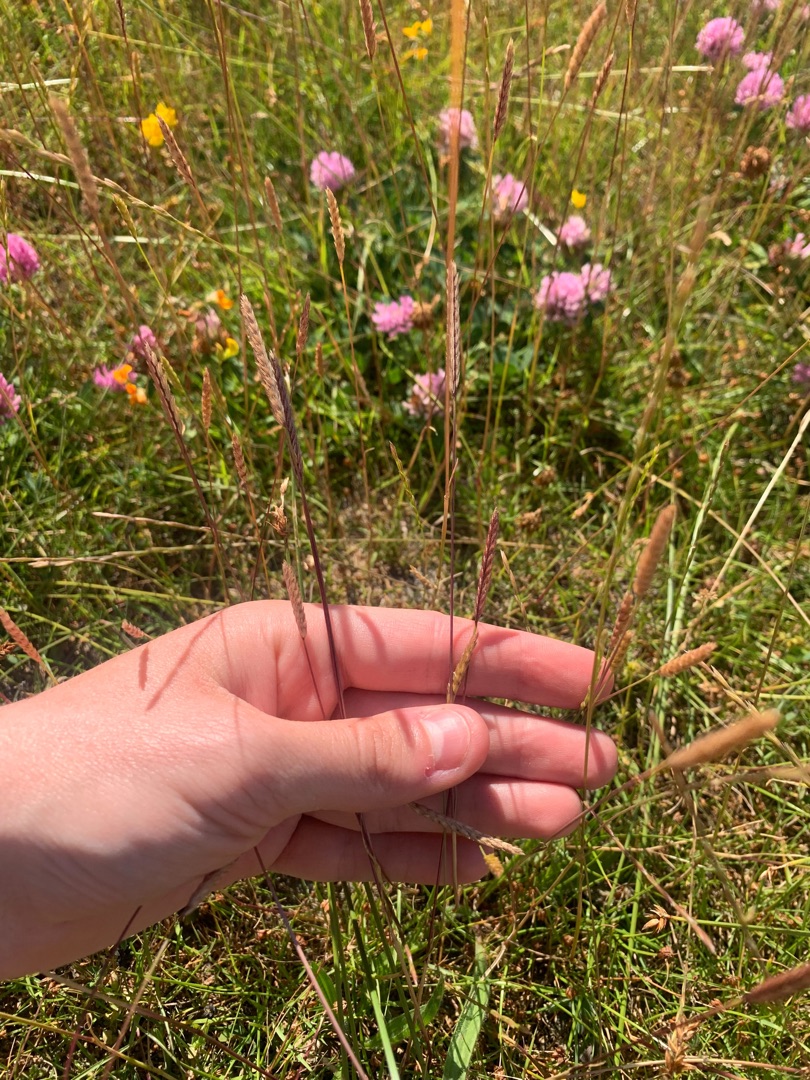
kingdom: Plantae
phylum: Tracheophyta
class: Liliopsida
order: Poales
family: Poaceae
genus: Cynosurus
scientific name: Cynosurus cristatus
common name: Kamgræs
